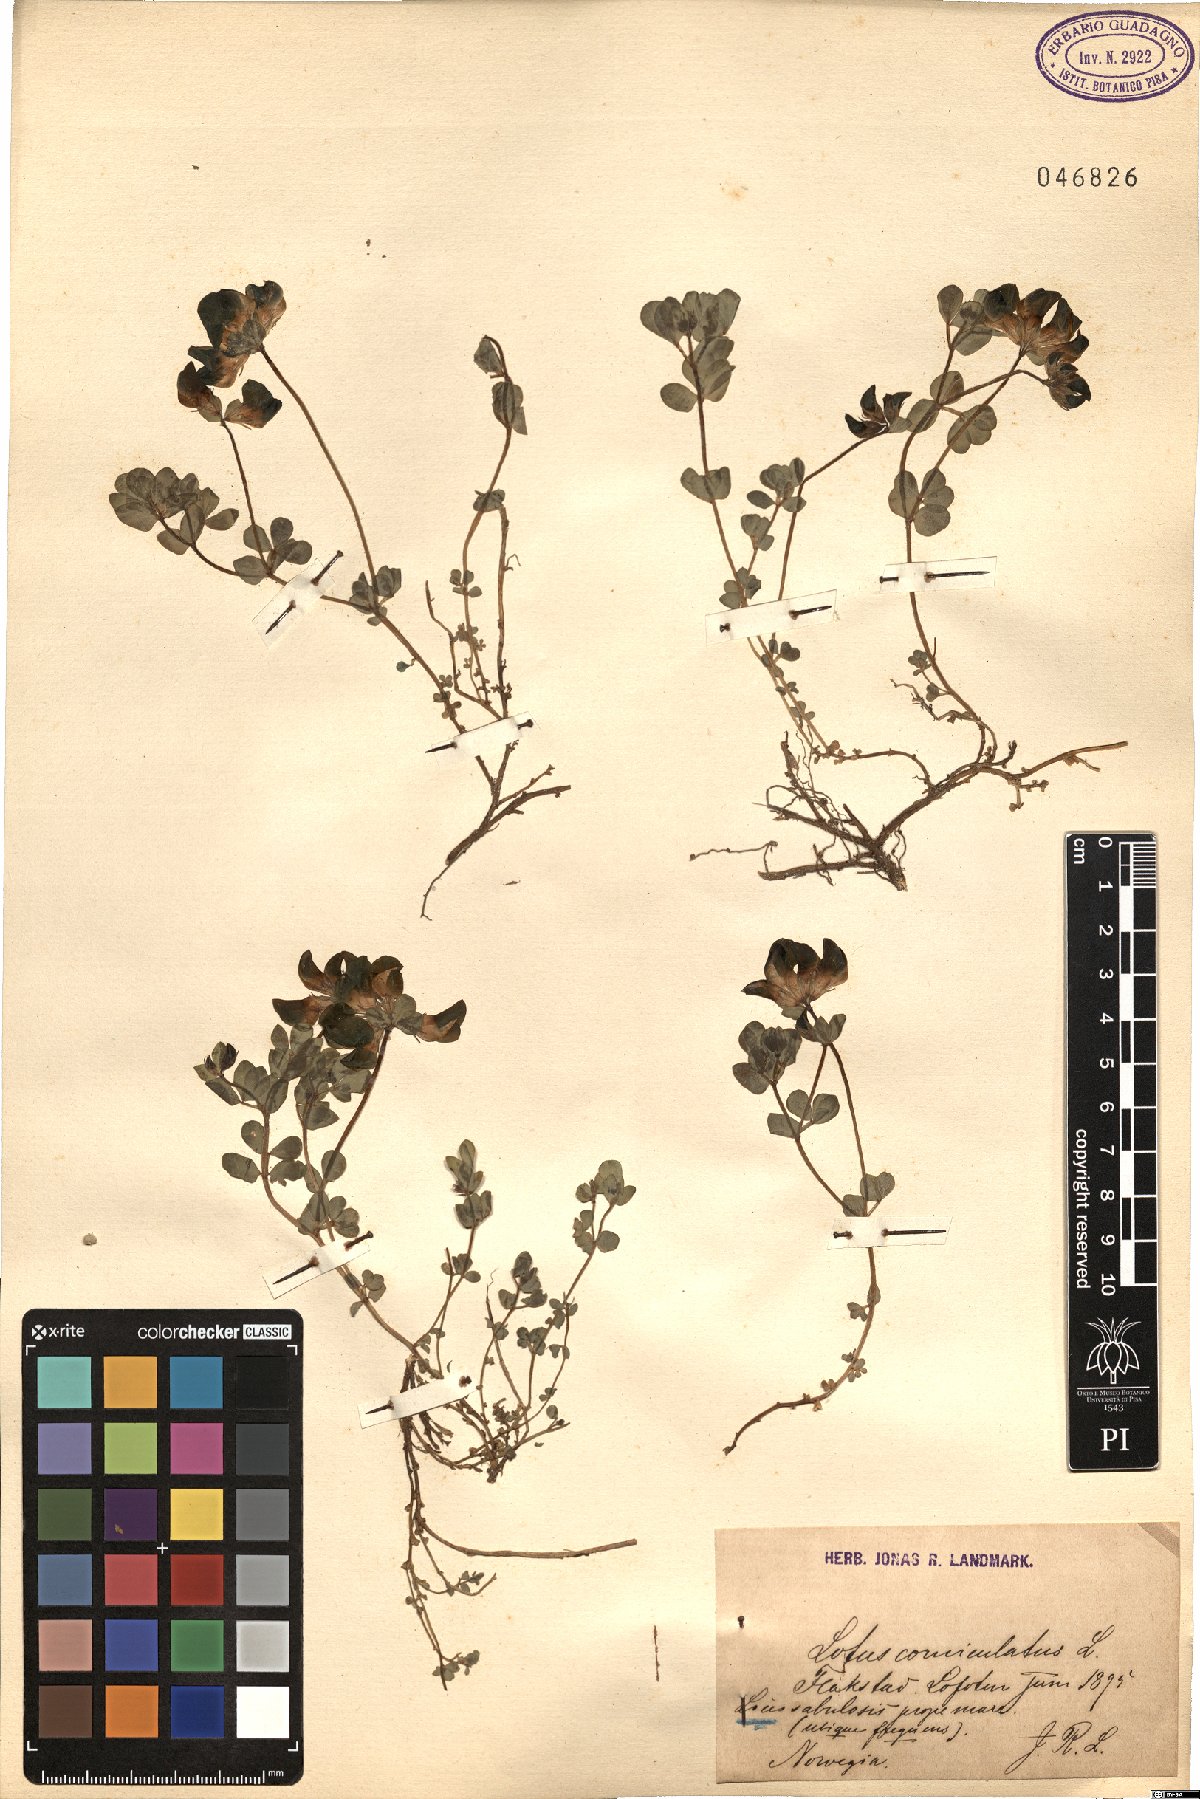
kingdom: Plantae
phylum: Tracheophyta
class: Magnoliopsida
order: Fabales
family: Fabaceae
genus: Lotus
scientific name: Lotus corniculatus
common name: Common bird's-foot-trefoil
